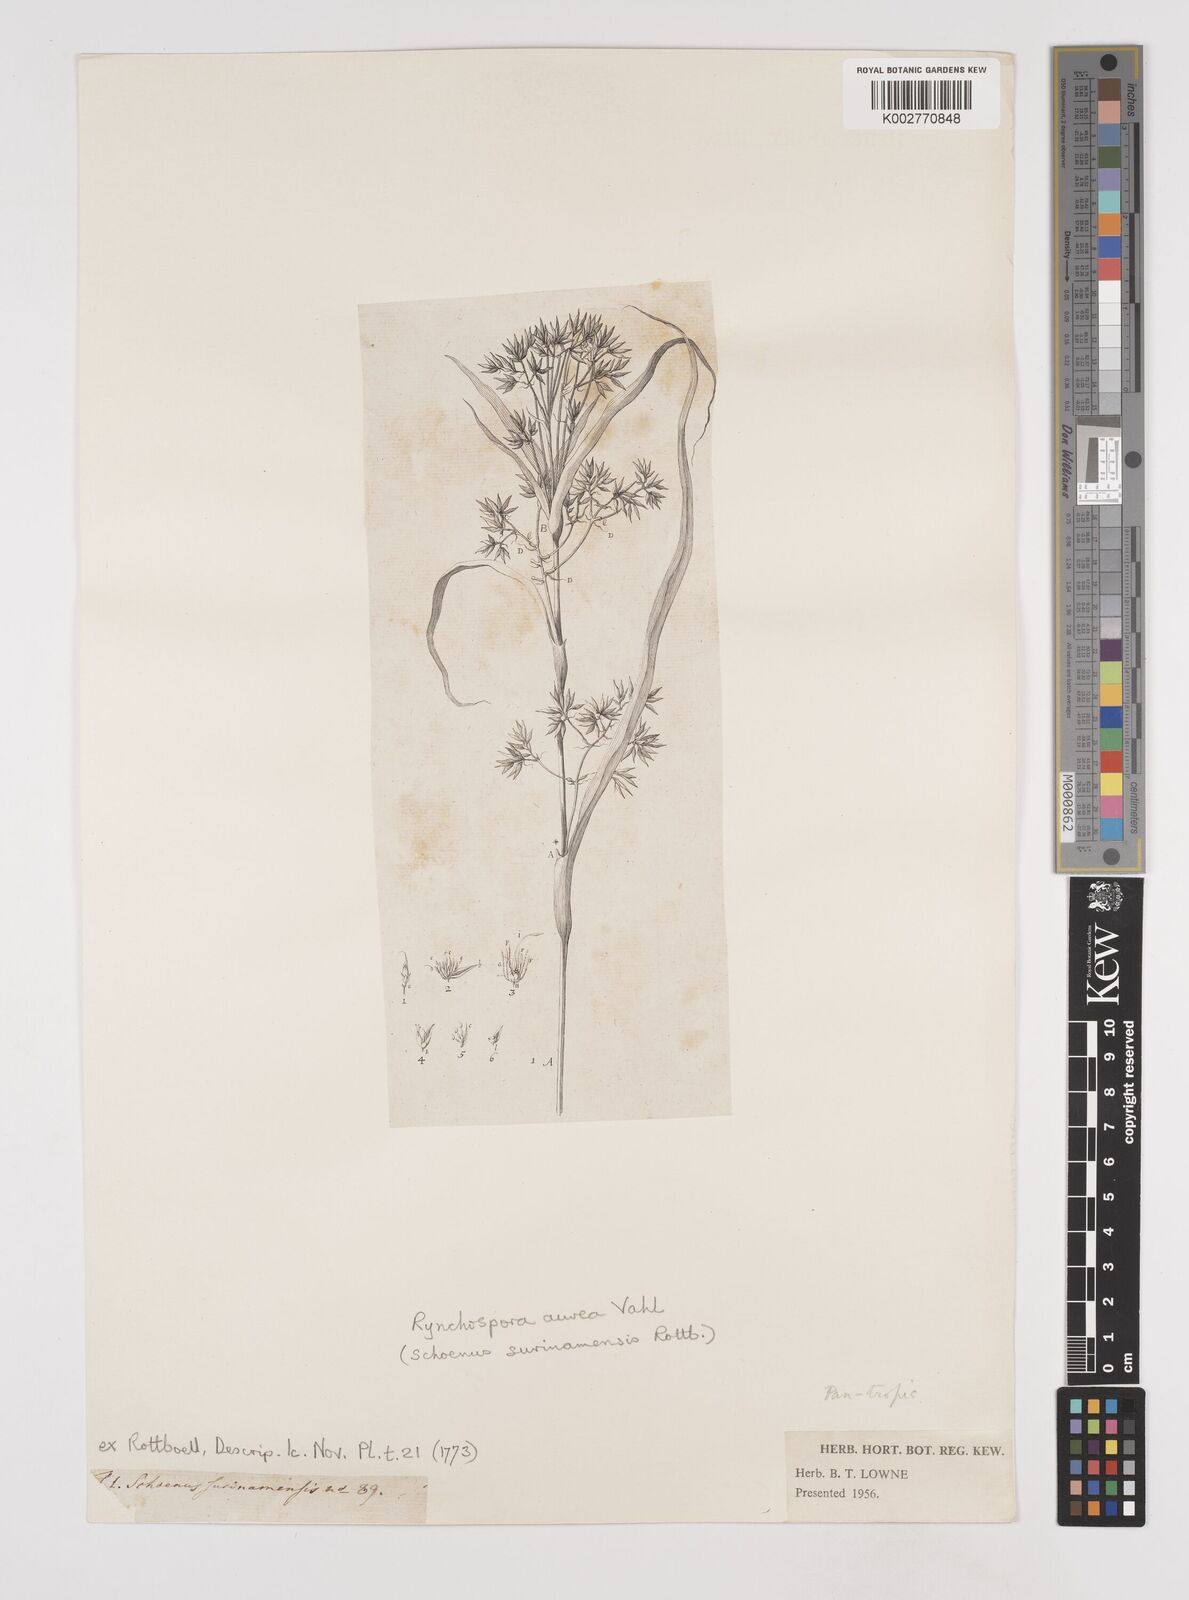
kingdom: Plantae
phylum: Tracheophyta
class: Liliopsida
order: Poales
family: Cyperaceae
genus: Rhynchospora
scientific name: Rhynchospora corymbosa
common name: Golden beak sedge
